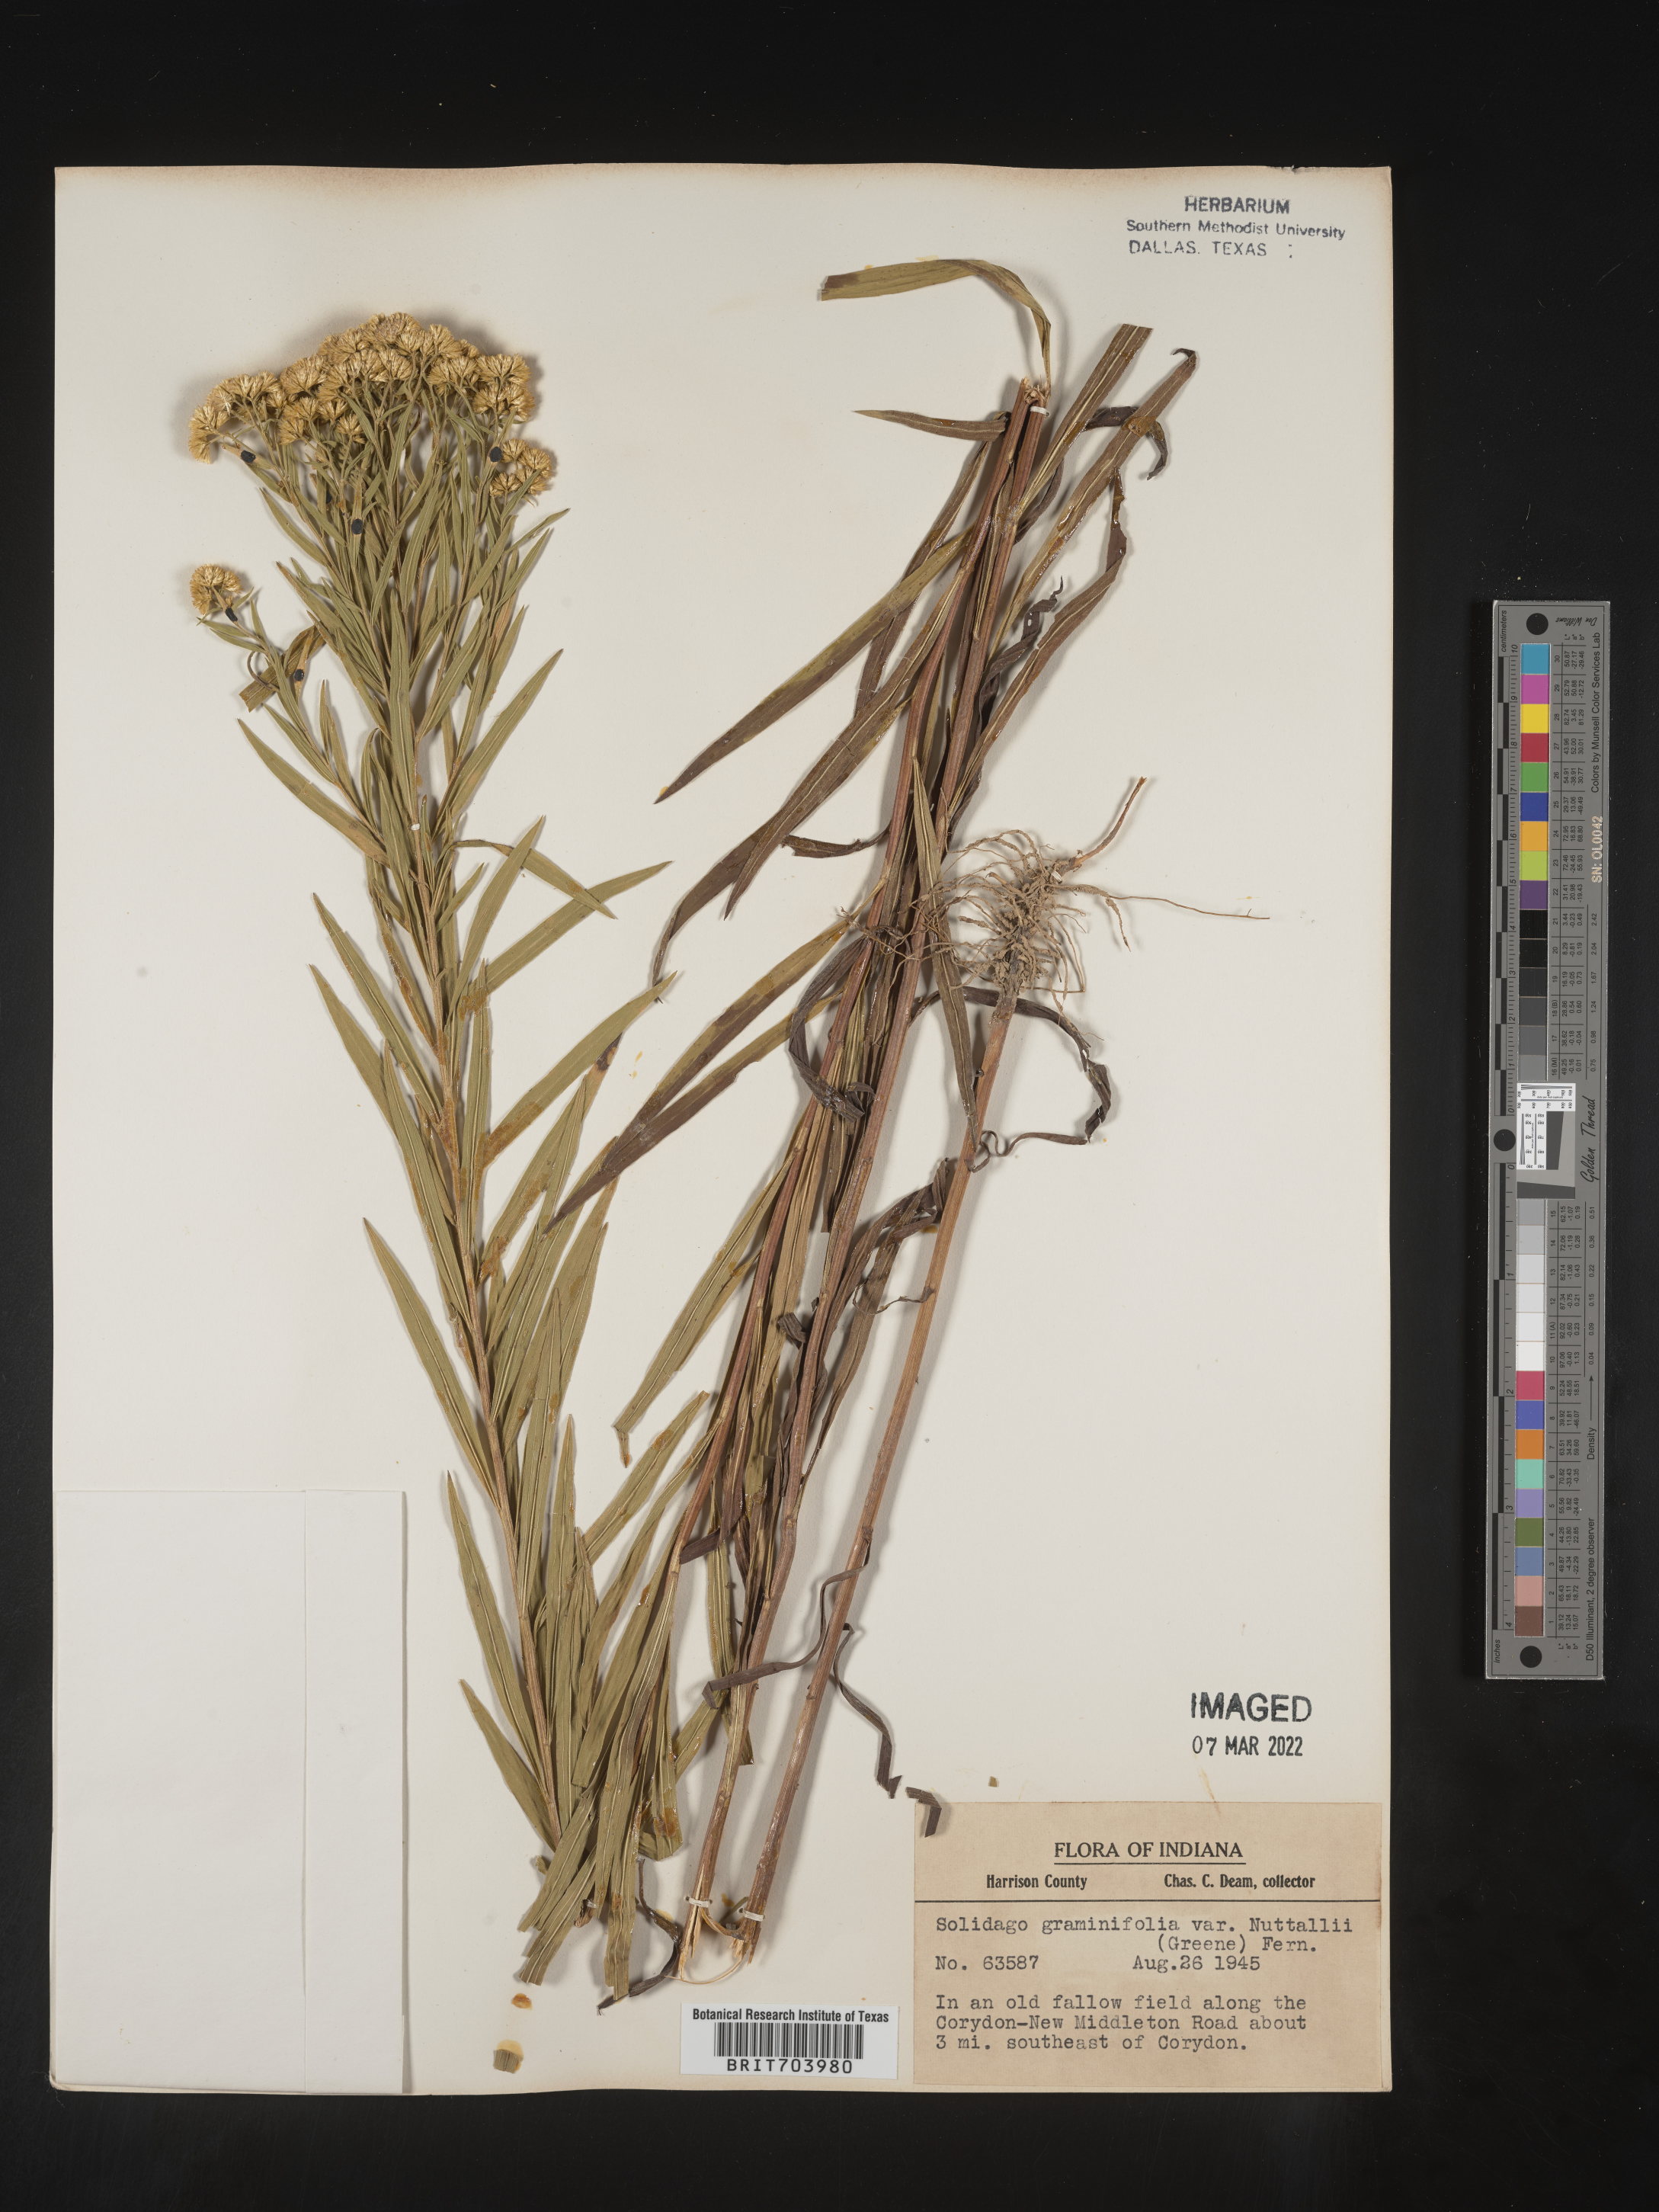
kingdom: Plantae
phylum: Tracheophyta
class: Magnoliopsida
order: Asterales
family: Asteraceae
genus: Euthamia
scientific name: Euthamia graminifolia
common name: Common goldentop
